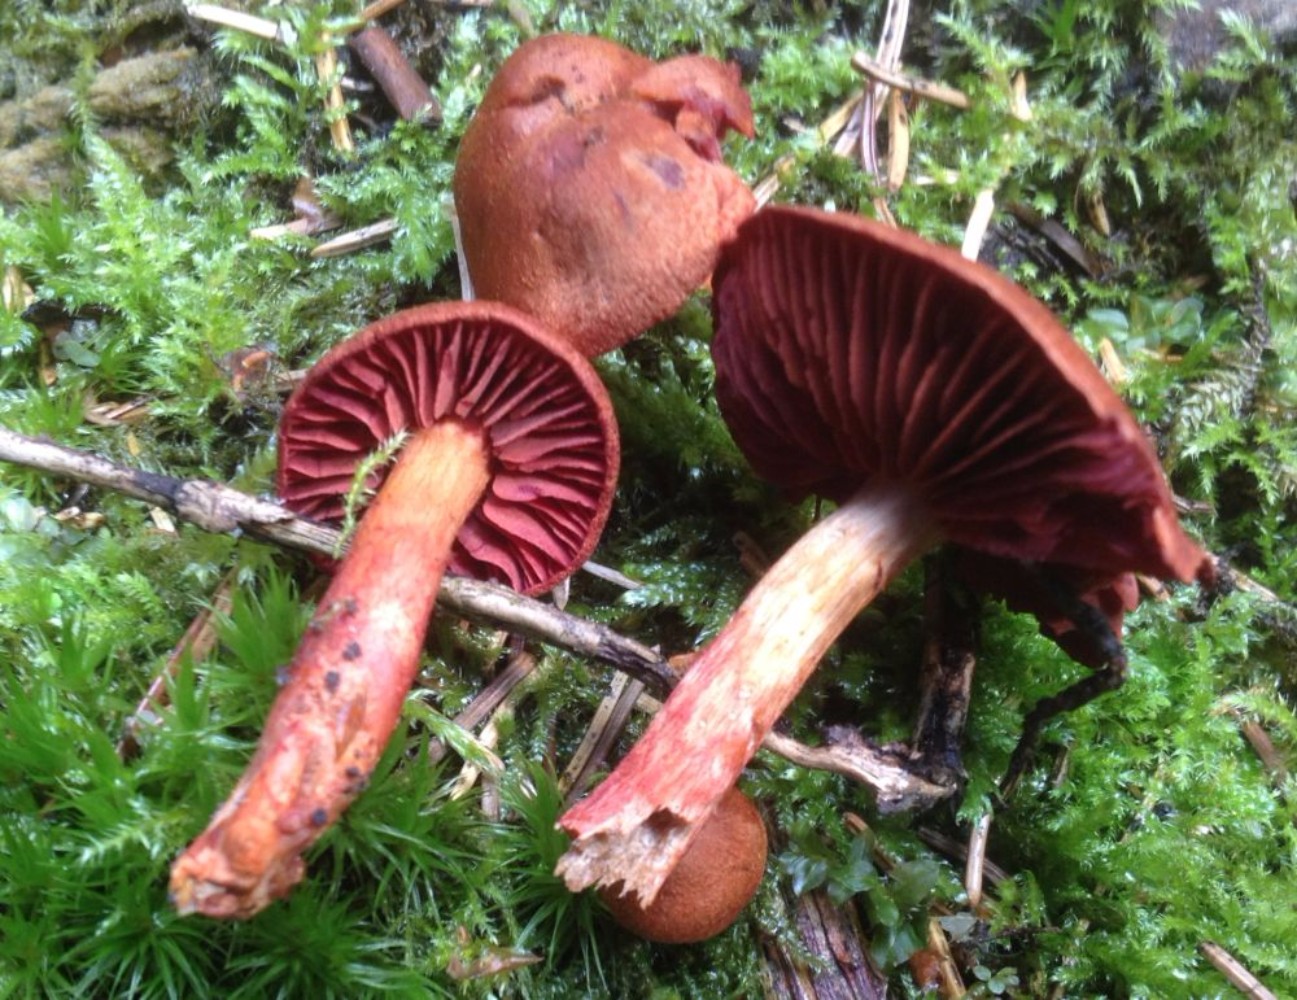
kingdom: Fungi
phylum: Basidiomycota
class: Agaricomycetes
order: Agaricales
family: Cortinariaceae
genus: Cortinarius
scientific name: Cortinarius
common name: cinnoberbladet slørhat
